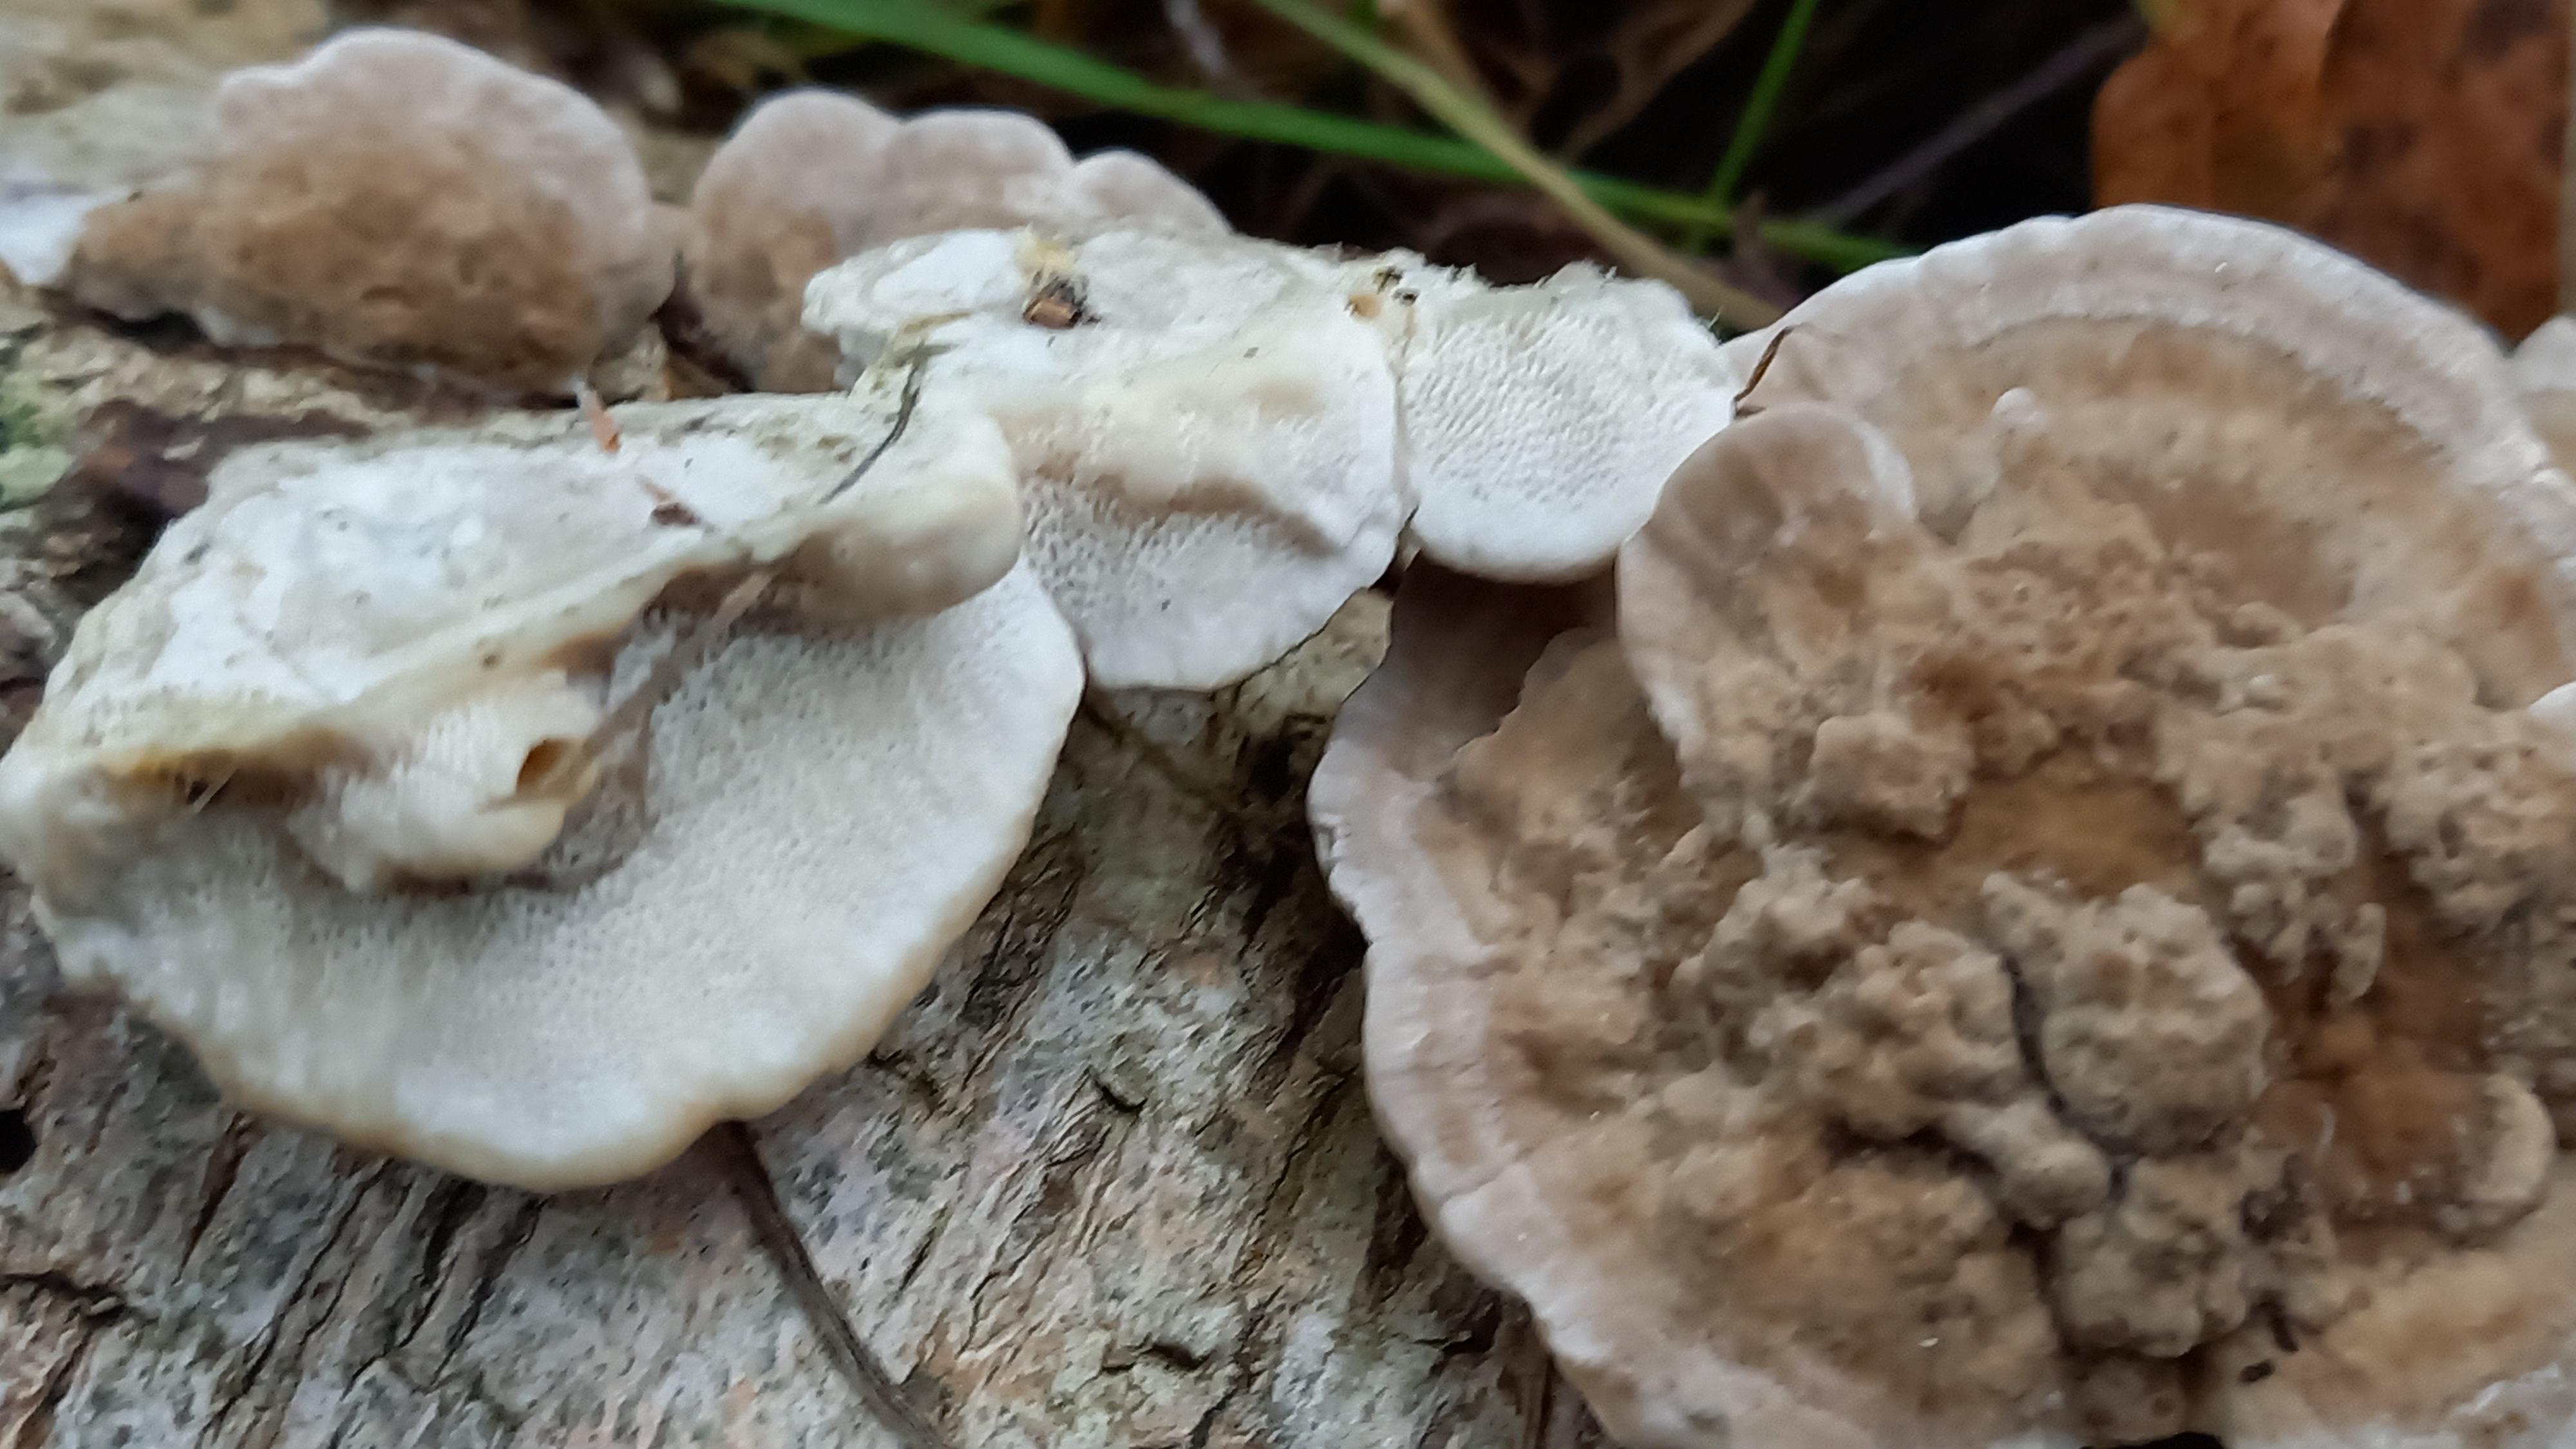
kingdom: Fungi
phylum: Basidiomycota
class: Agaricomycetes
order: Polyporales
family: Polyporaceae
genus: Trametes
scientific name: Trametes ochracea
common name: bæltet læderporesvamp
